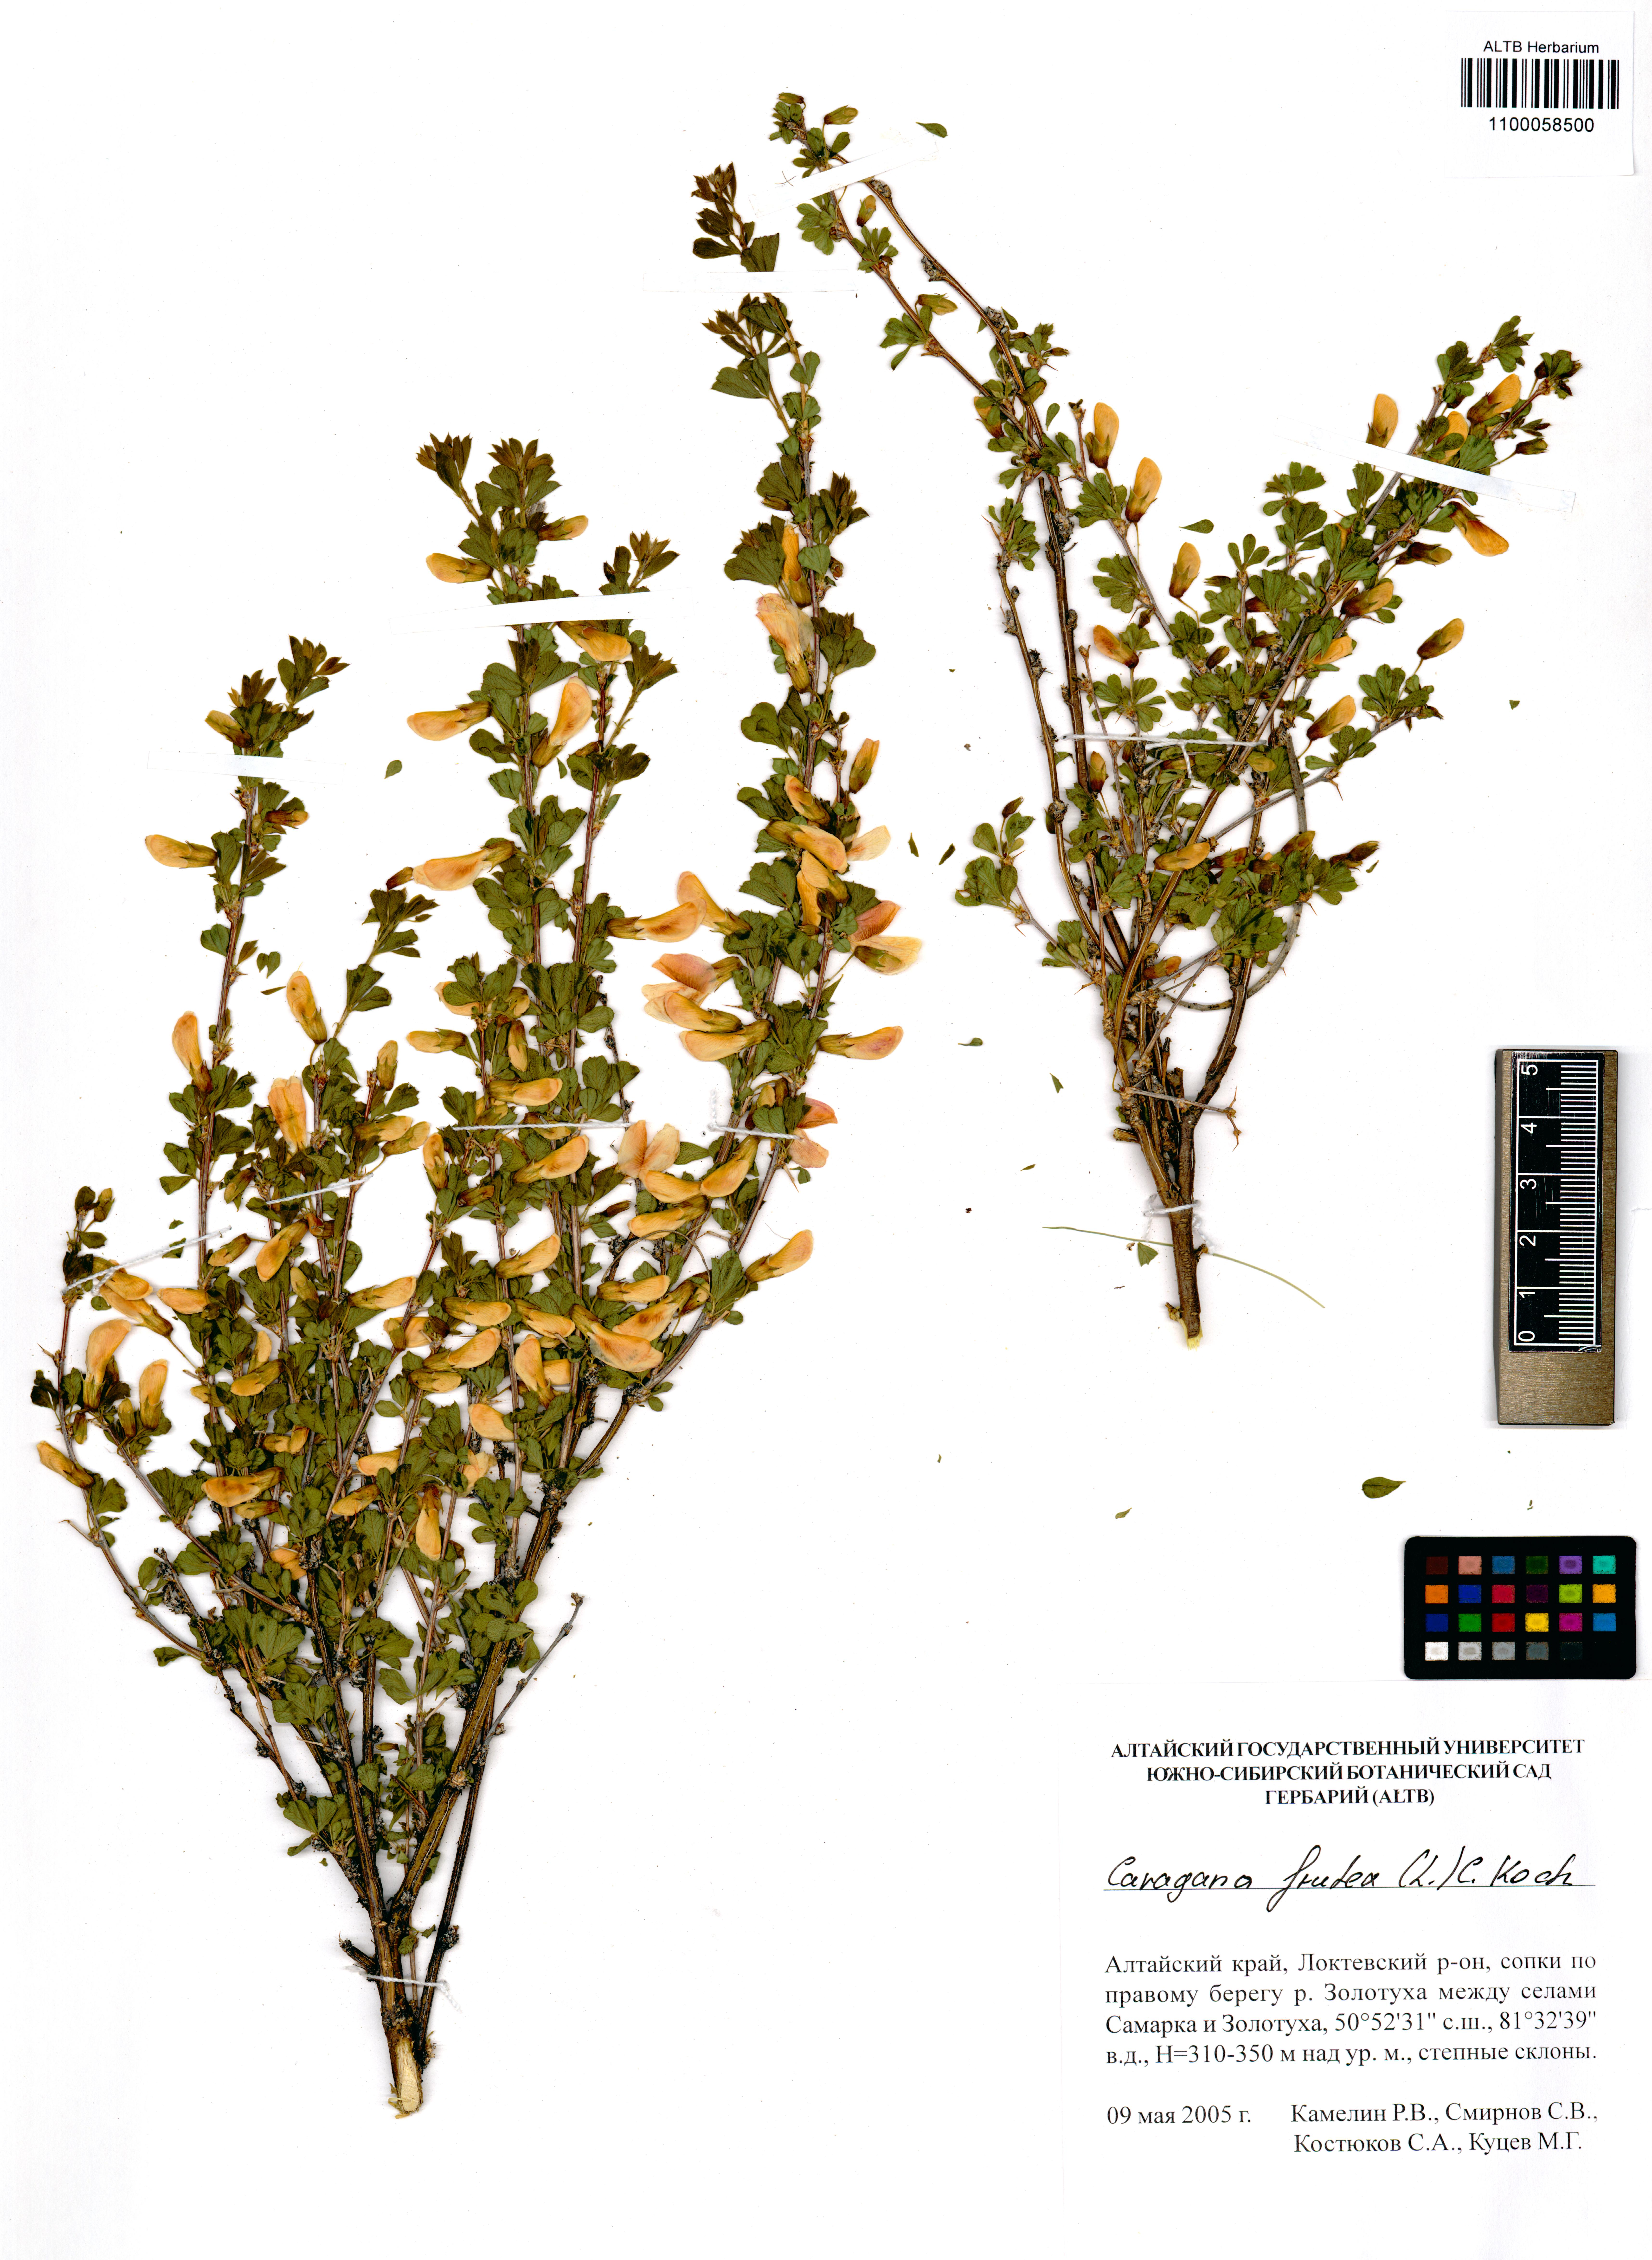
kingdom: Plantae
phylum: Tracheophyta
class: Magnoliopsida
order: Fabales
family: Fabaceae
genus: Caragana
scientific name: Caragana frutex
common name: Russian peashrub
